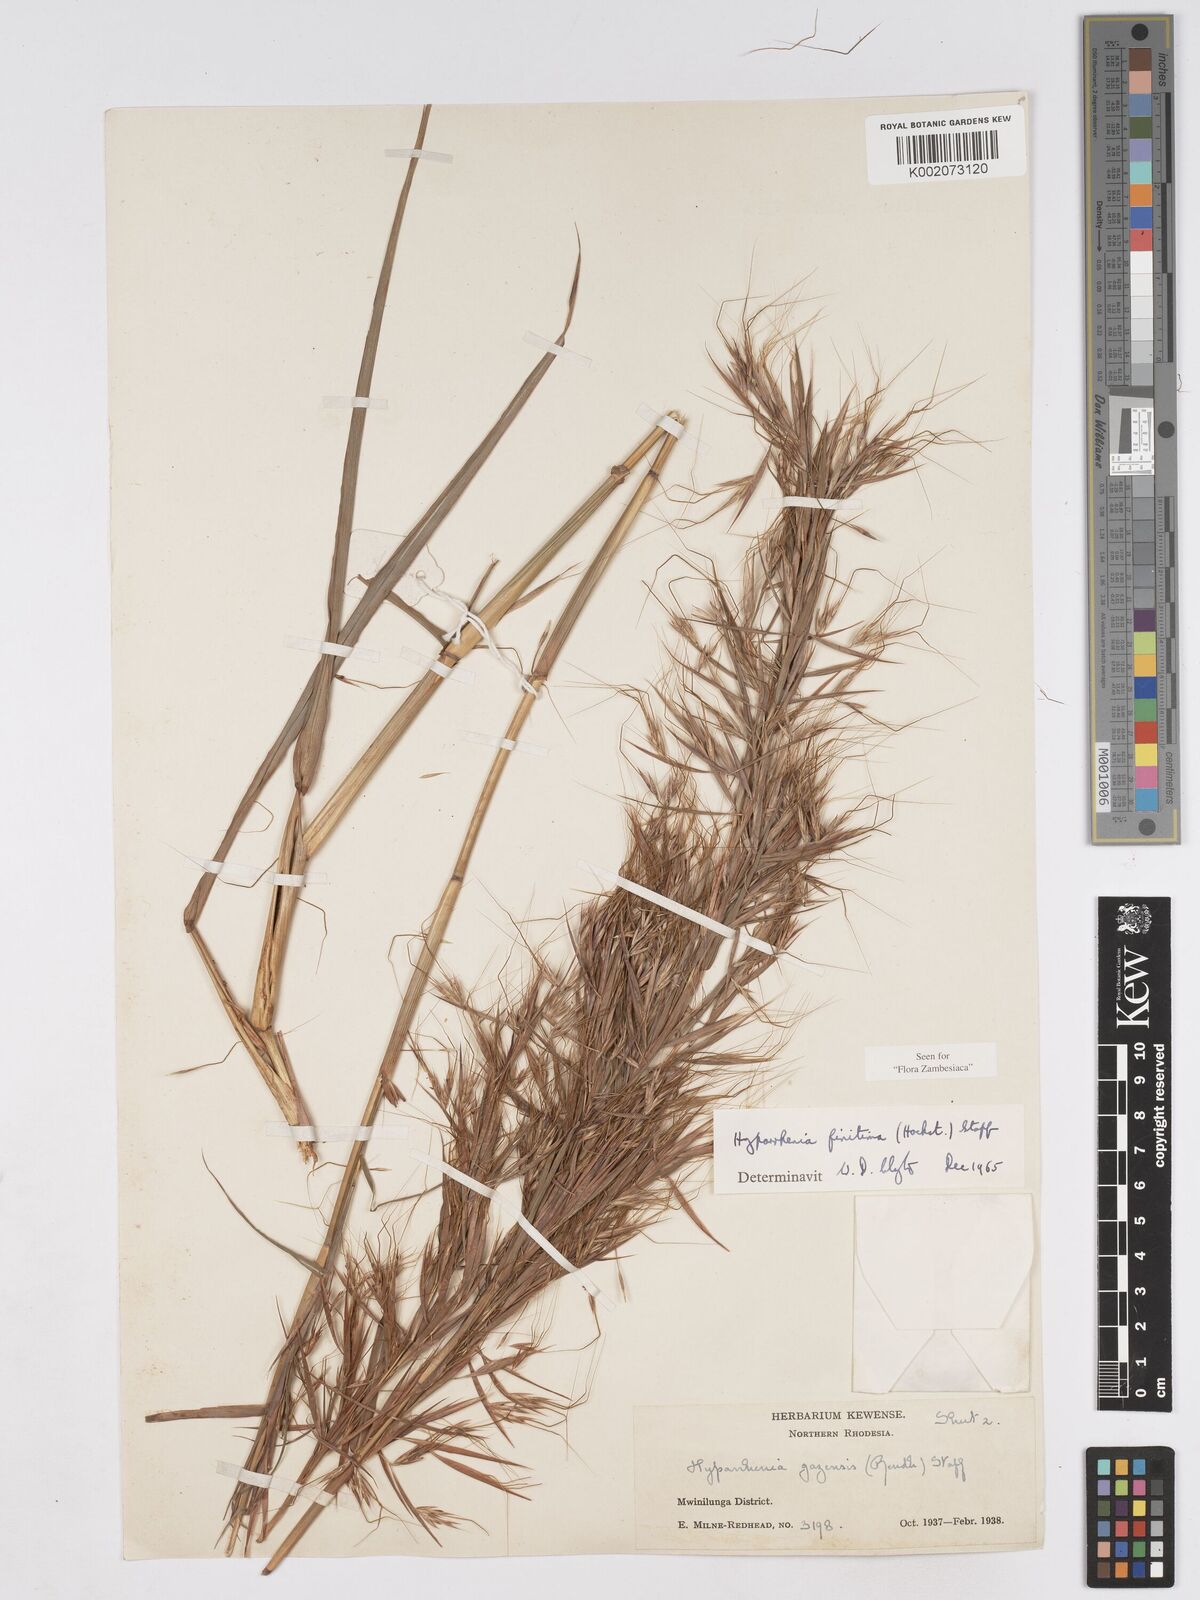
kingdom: Plantae
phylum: Tracheophyta
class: Liliopsida
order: Poales
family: Poaceae
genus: Hyparrhenia
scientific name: Hyparrhenia finitima
